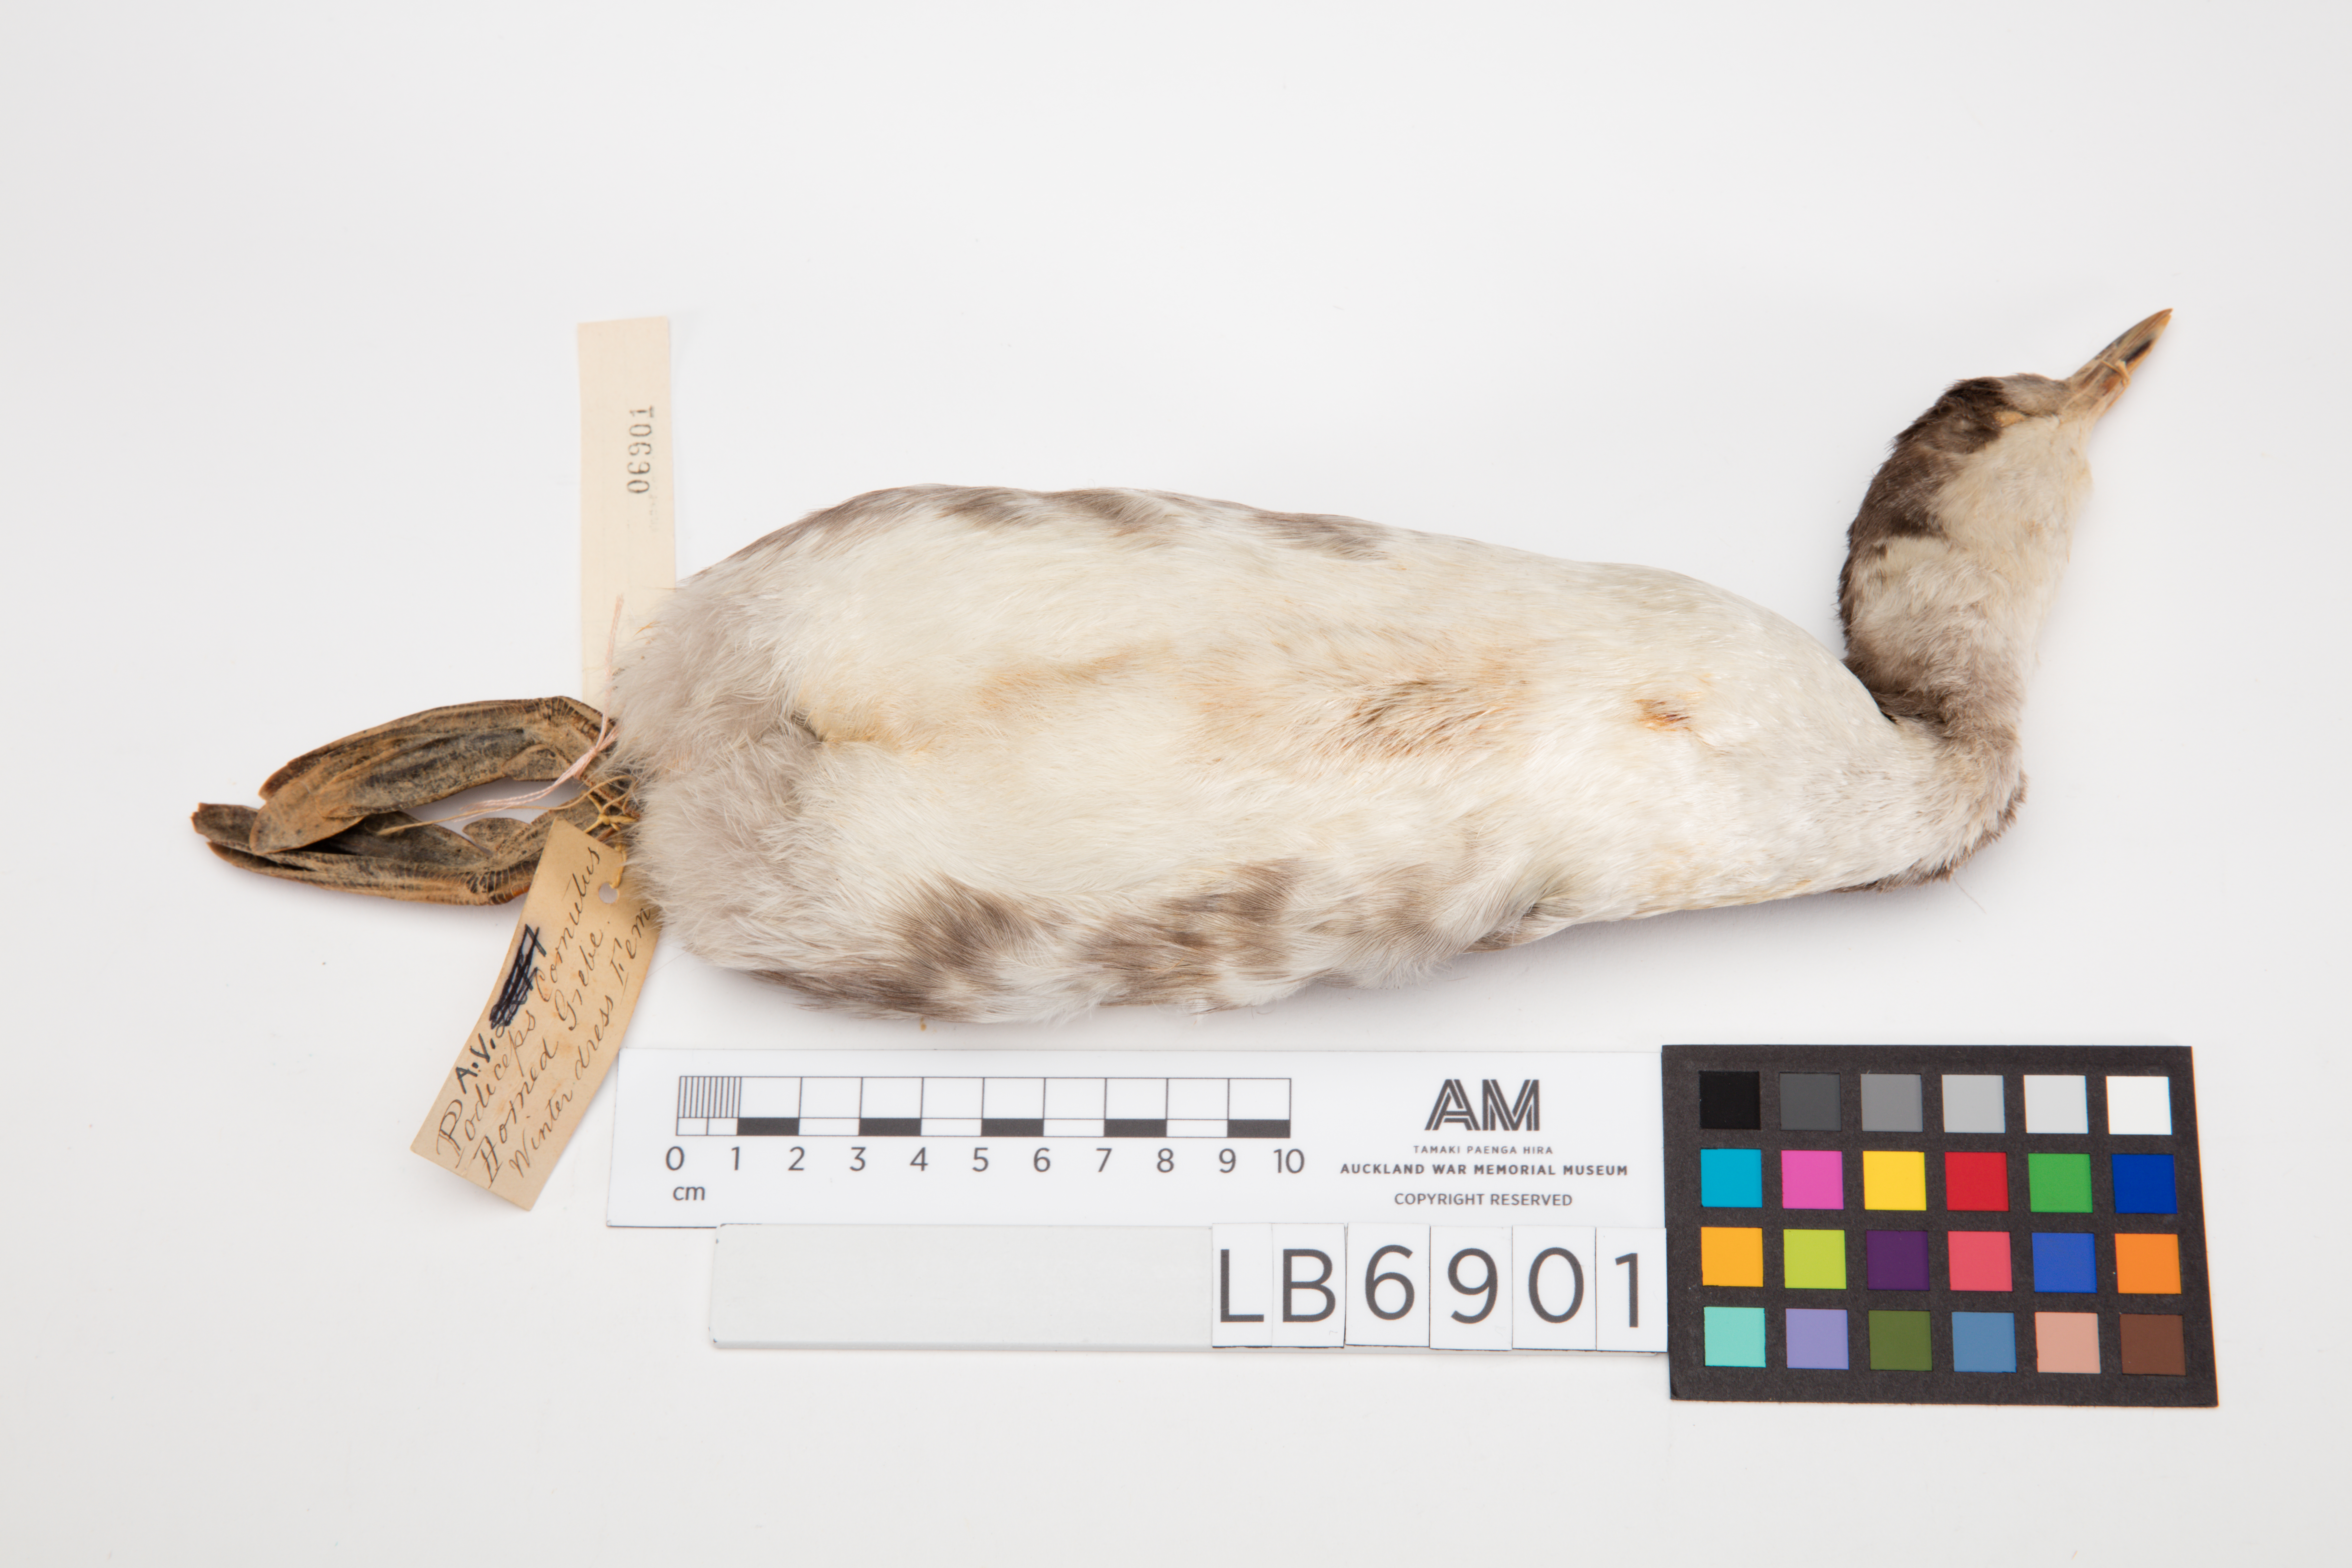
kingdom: Animalia
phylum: Chordata
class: Aves
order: Podicipediformes
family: Podicipedidae
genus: Podiceps
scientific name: Podiceps auritus
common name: Horned grebe
